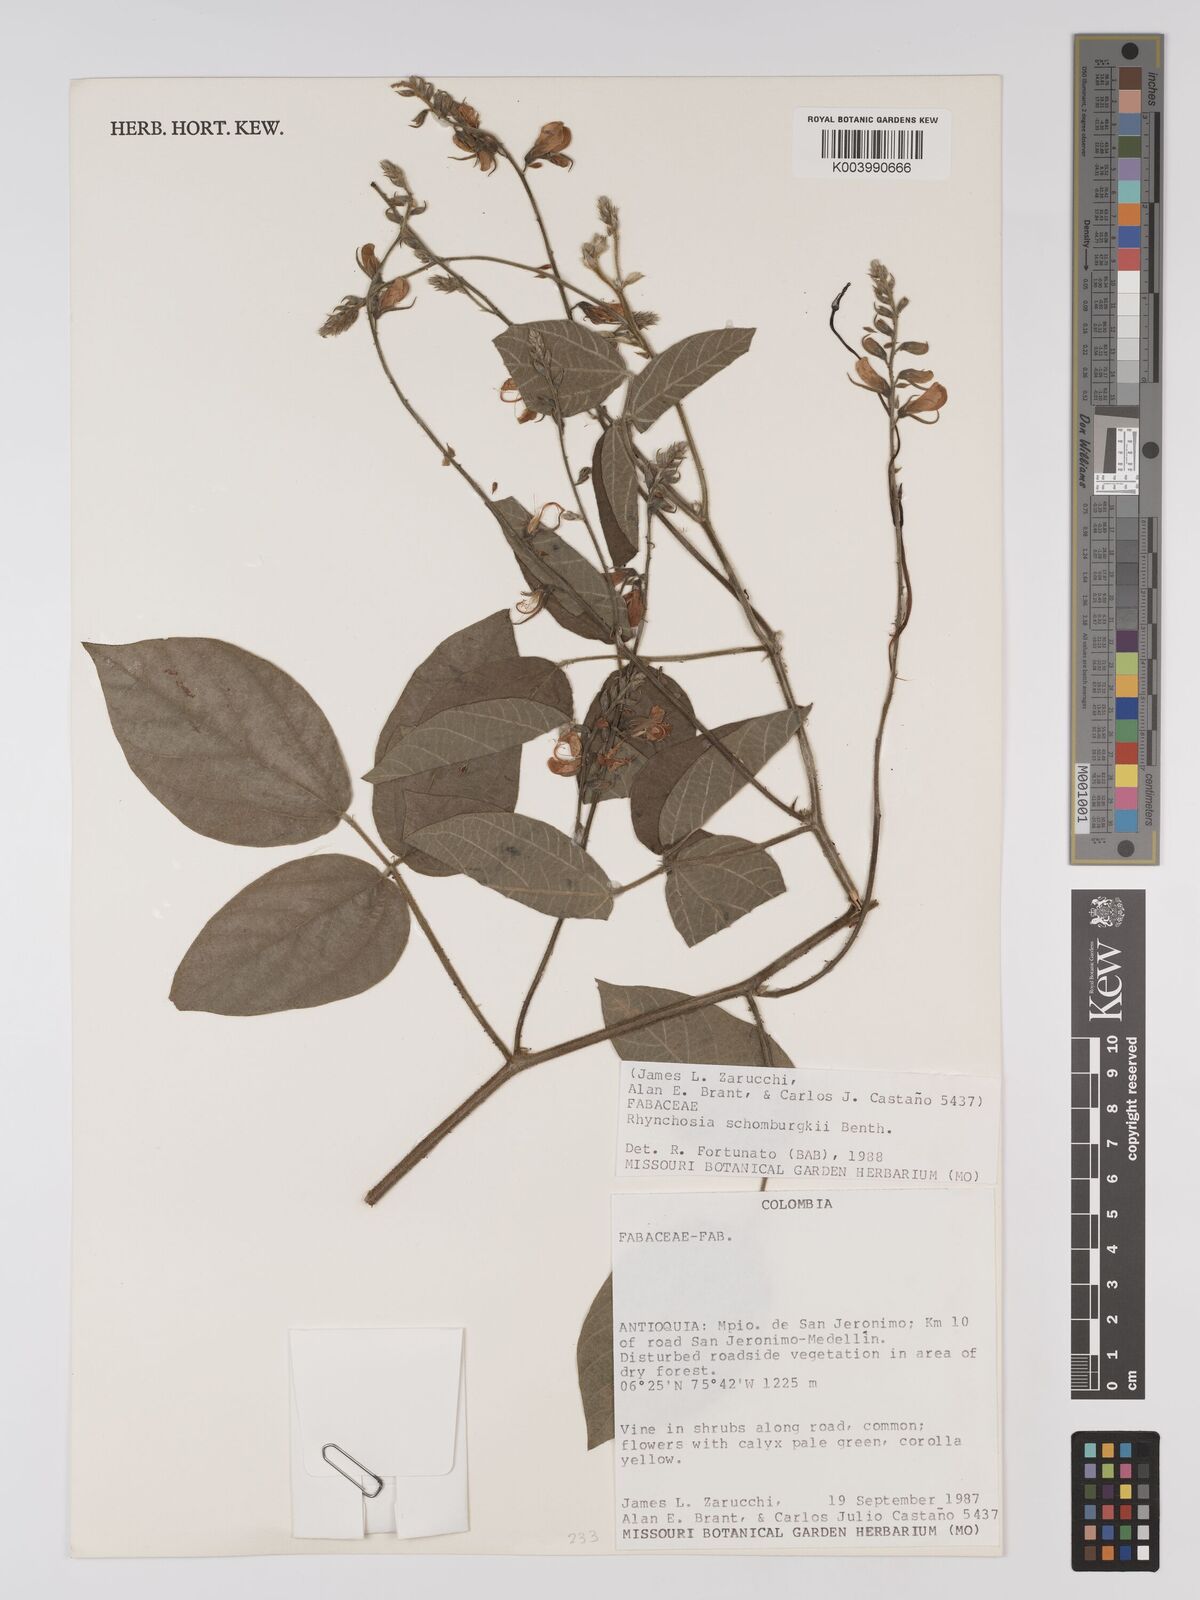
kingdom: Plantae
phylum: Tracheophyta
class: Magnoliopsida
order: Fabales
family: Fabaceae
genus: Rhynchosia
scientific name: Rhynchosia schomburgkii
